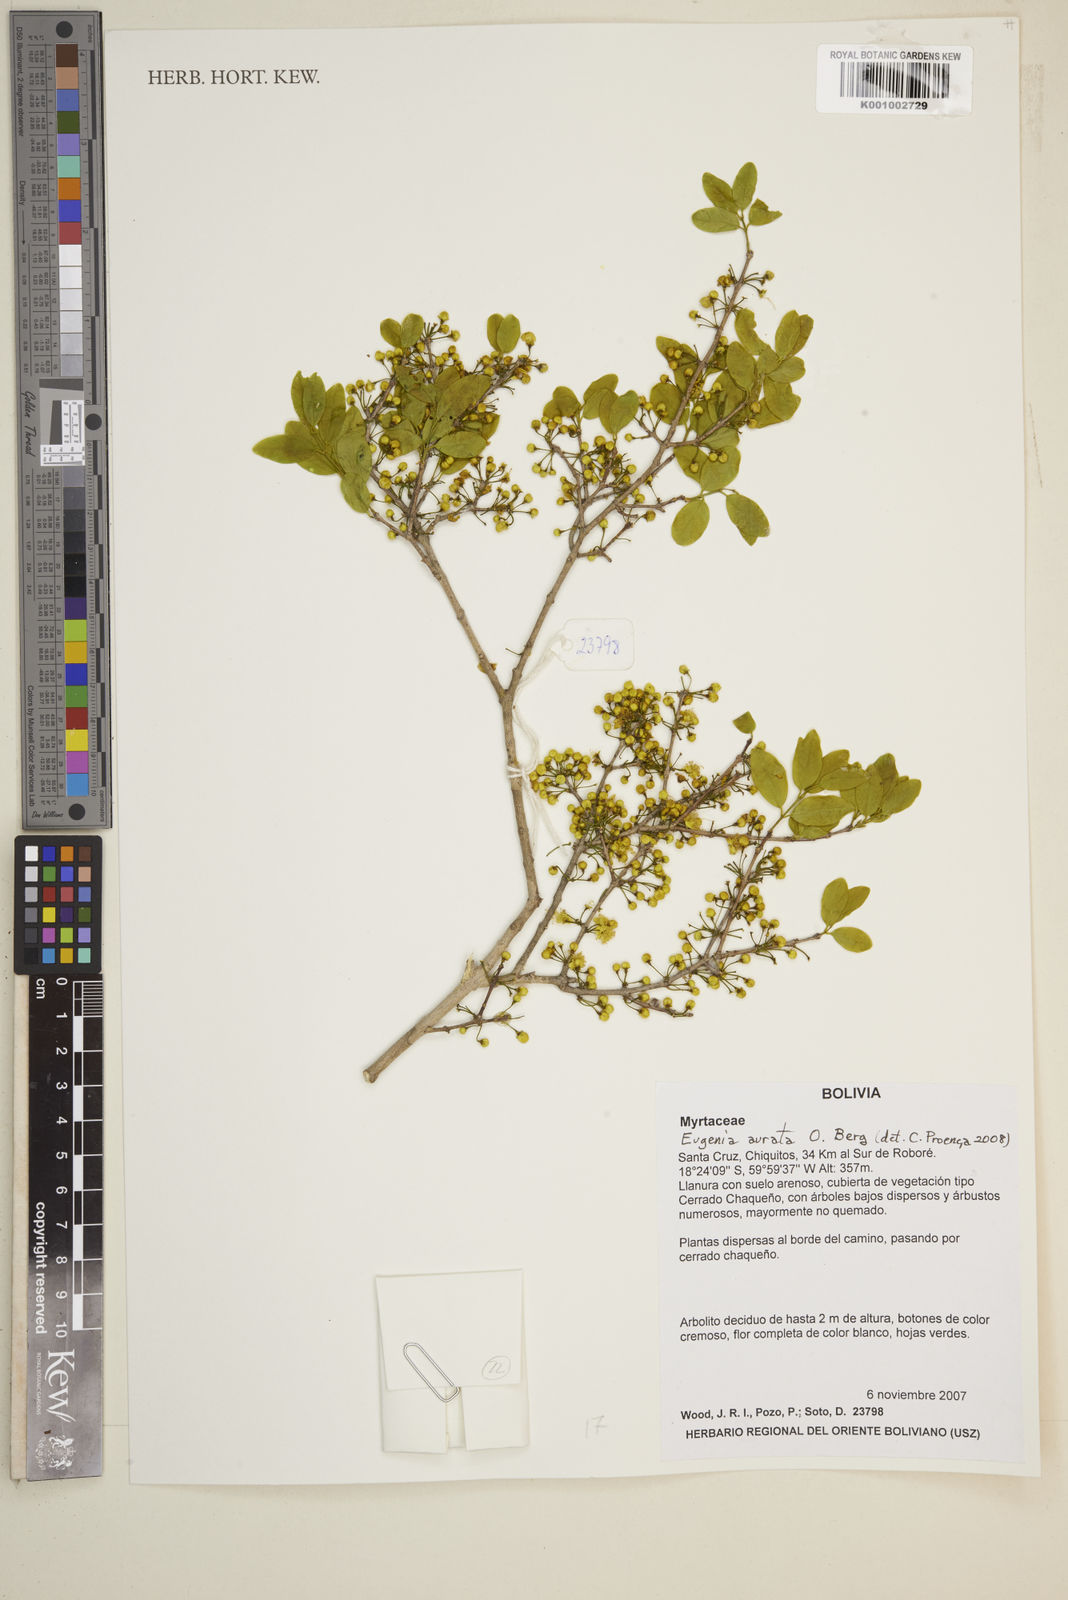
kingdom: Plantae
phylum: Tracheophyta
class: Magnoliopsida
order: Myrtales
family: Myrtaceae
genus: Eugenia
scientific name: Eugenia aurata
